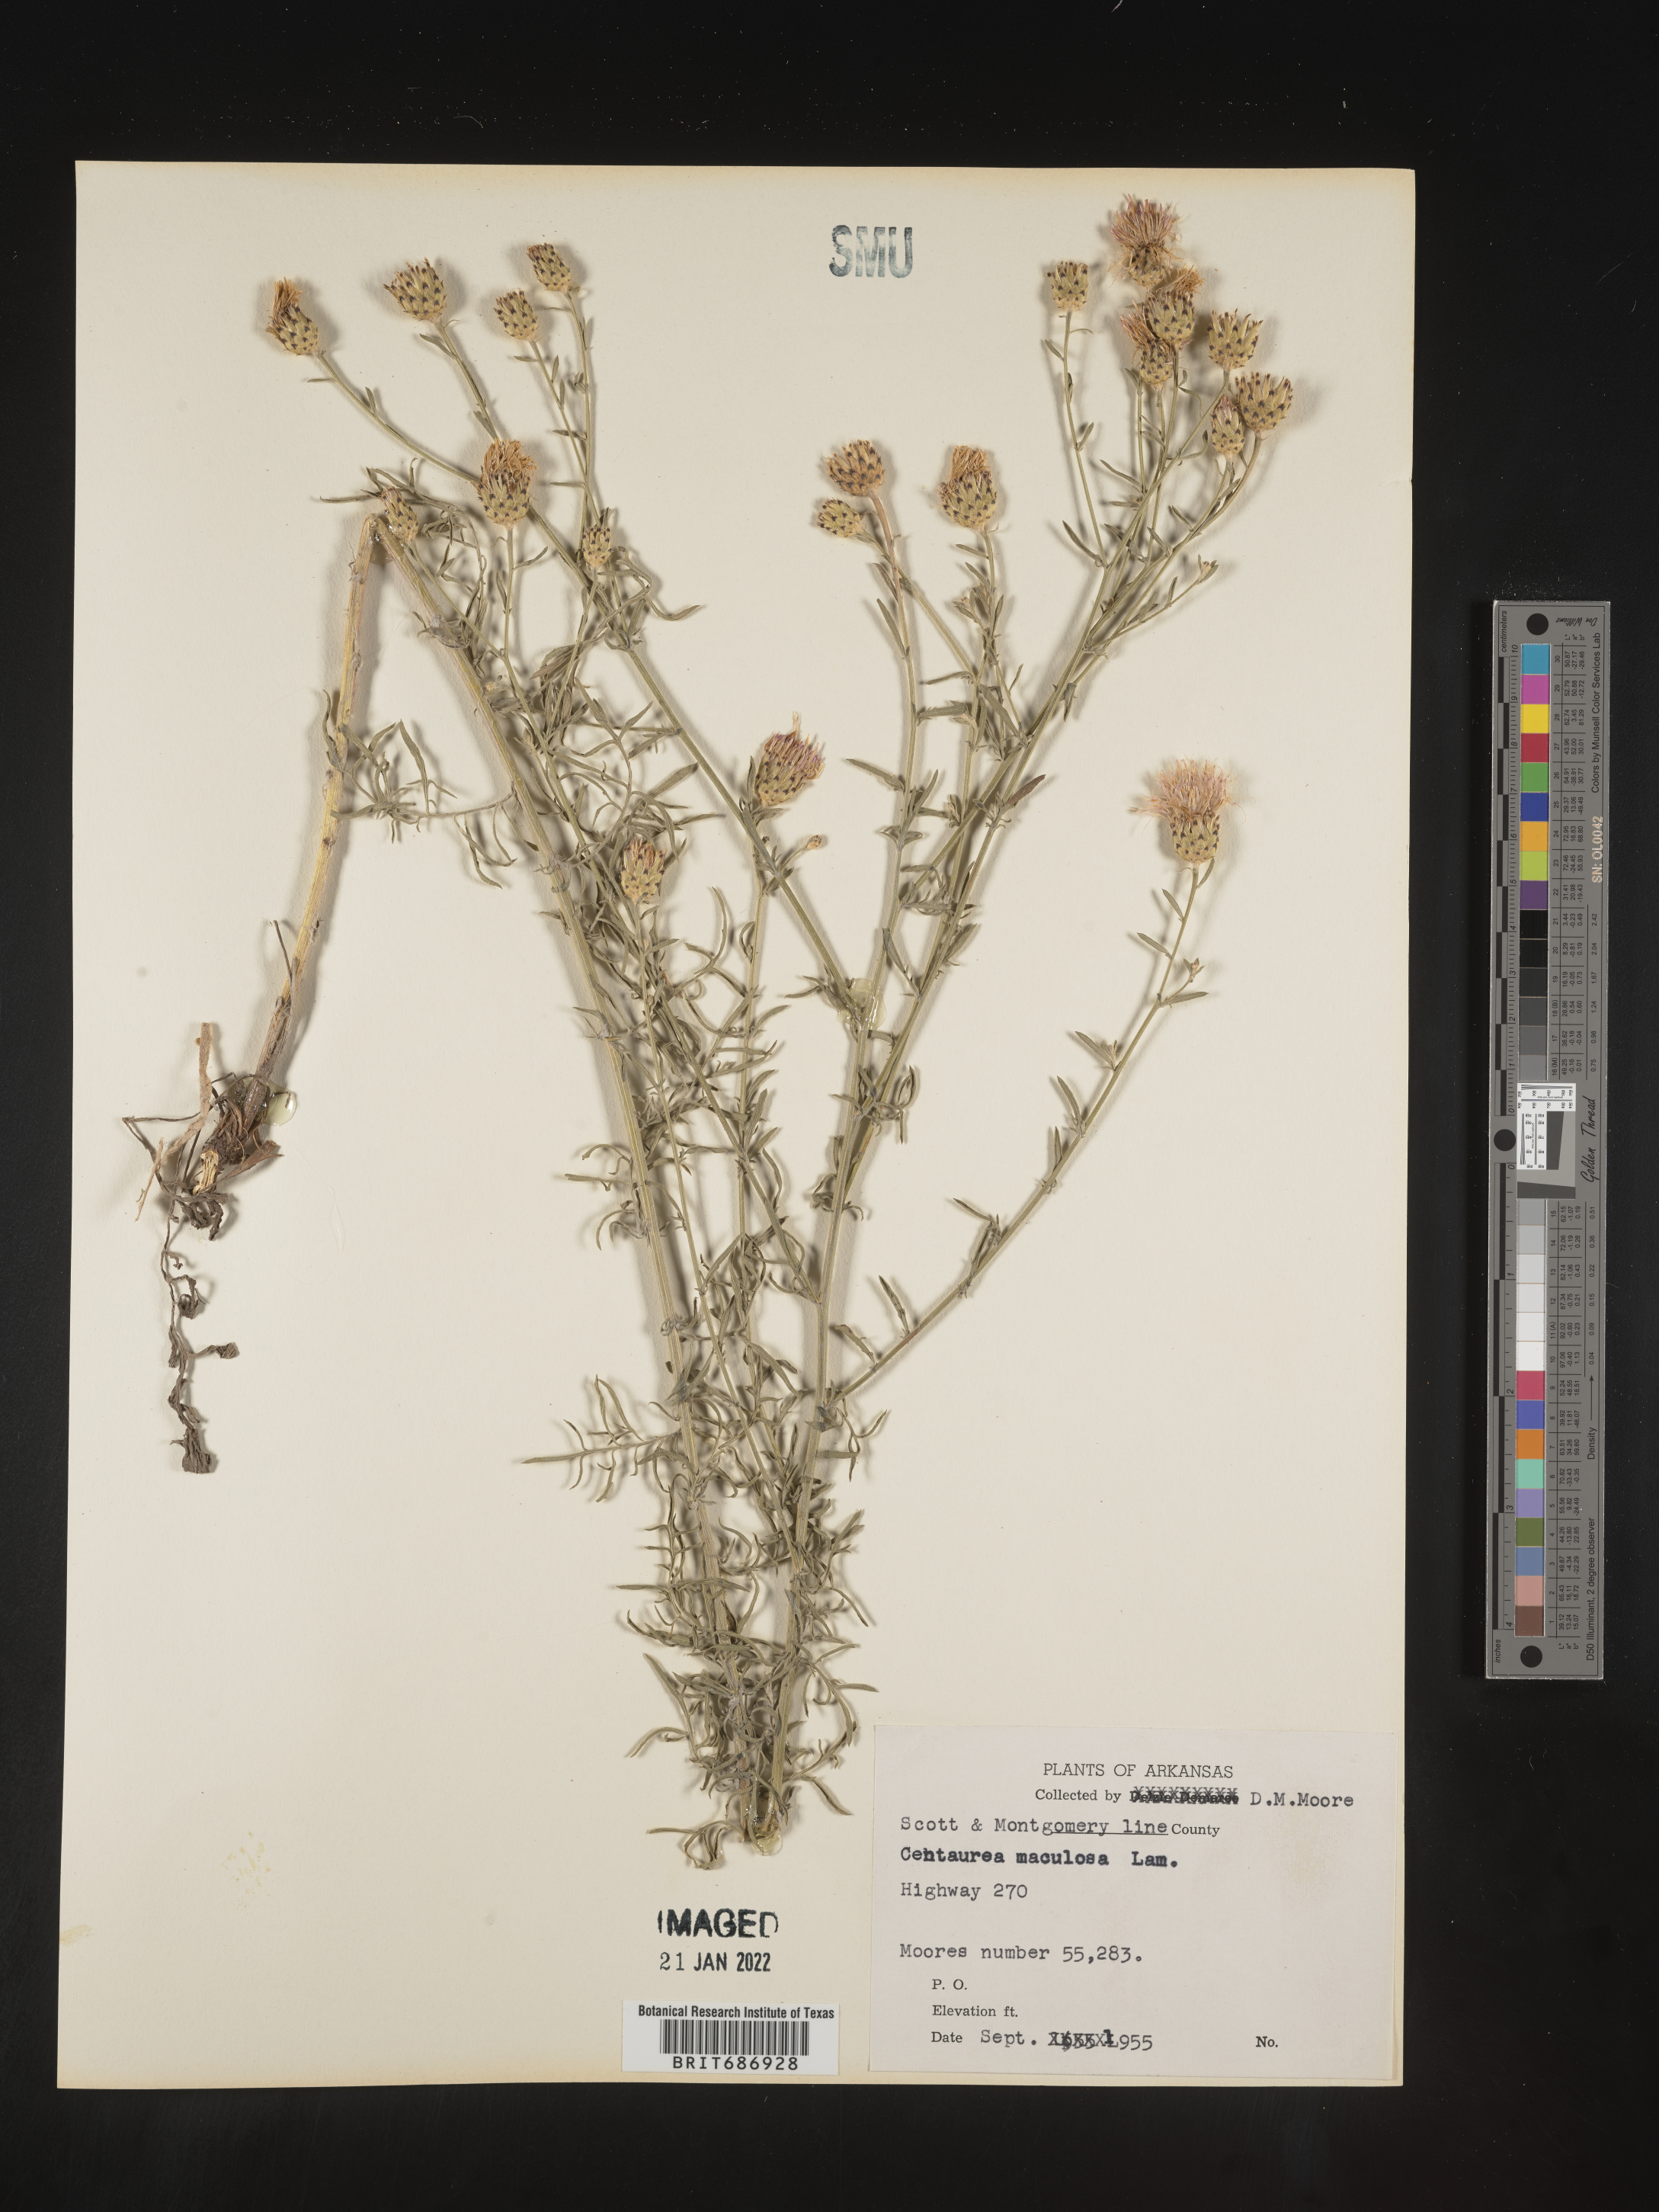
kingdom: Plantae
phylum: Tracheophyta
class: Magnoliopsida
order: Asterales
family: Asteraceae
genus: Centaurea
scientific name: Centaurea stoebe
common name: Spotted knapweed
